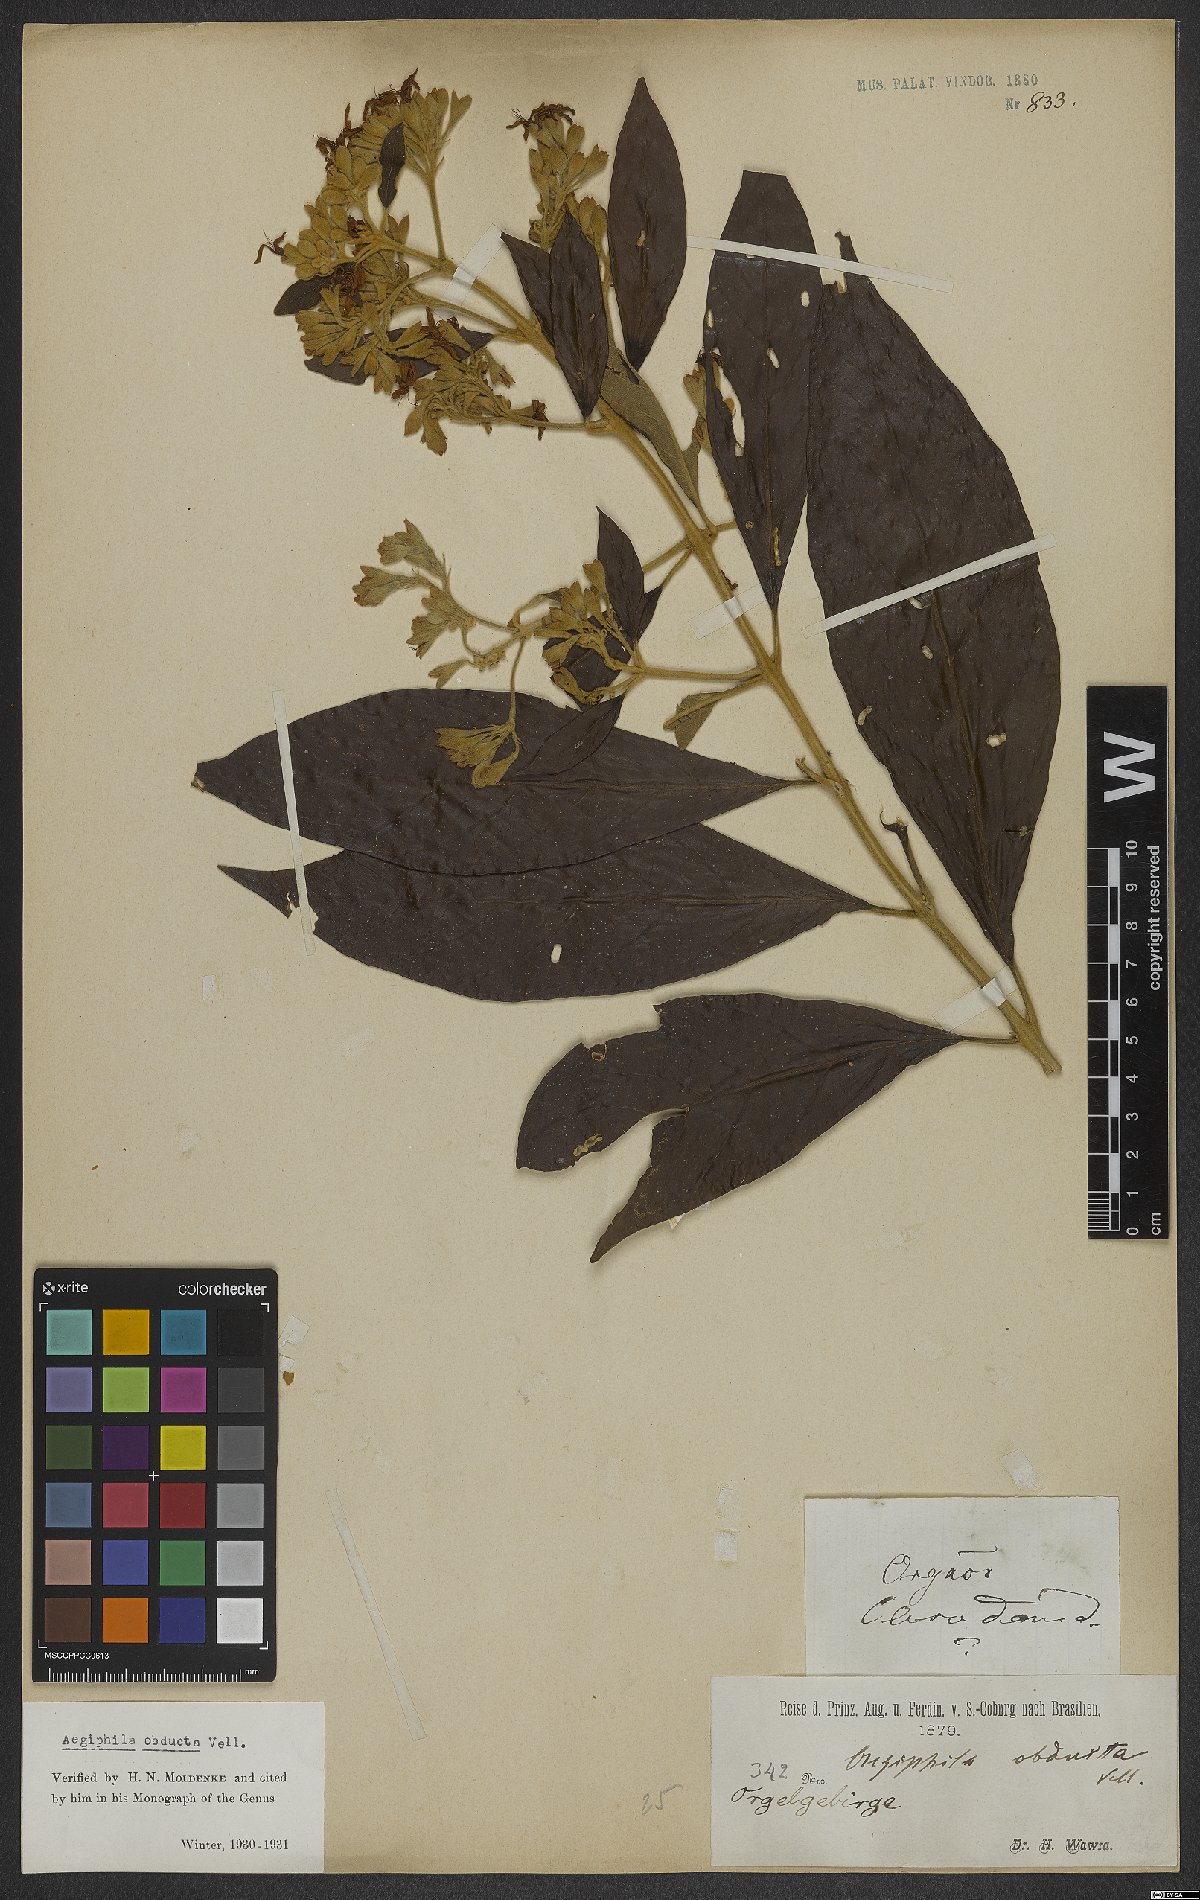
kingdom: Plantae
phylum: Tracheophyta
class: Magnoliopsida
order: Lamiales
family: Lamiaceae
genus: Aegiphila
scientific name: Aegiphila obducta
